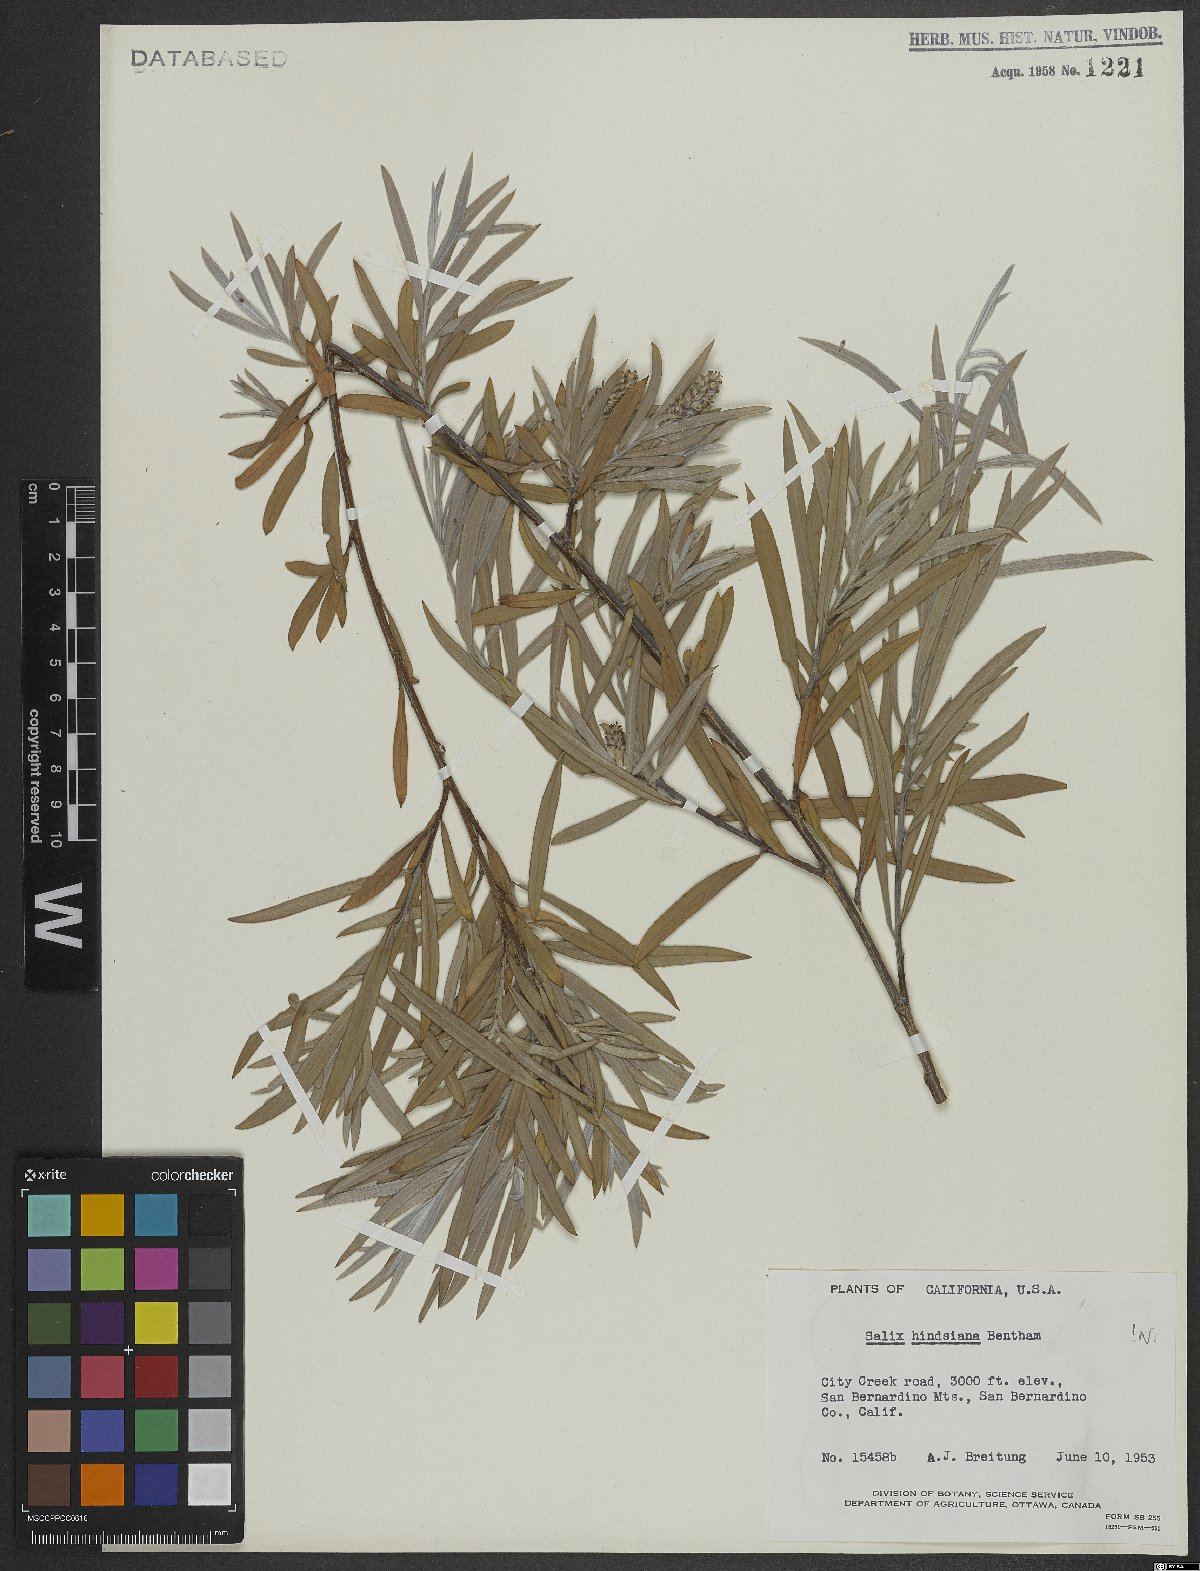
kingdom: Plantae
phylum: Tracheophyta
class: Magnoliopsida
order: Malpighiales
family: Salicaceae
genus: Salix
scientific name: Salix exigua
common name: Coyote willow
